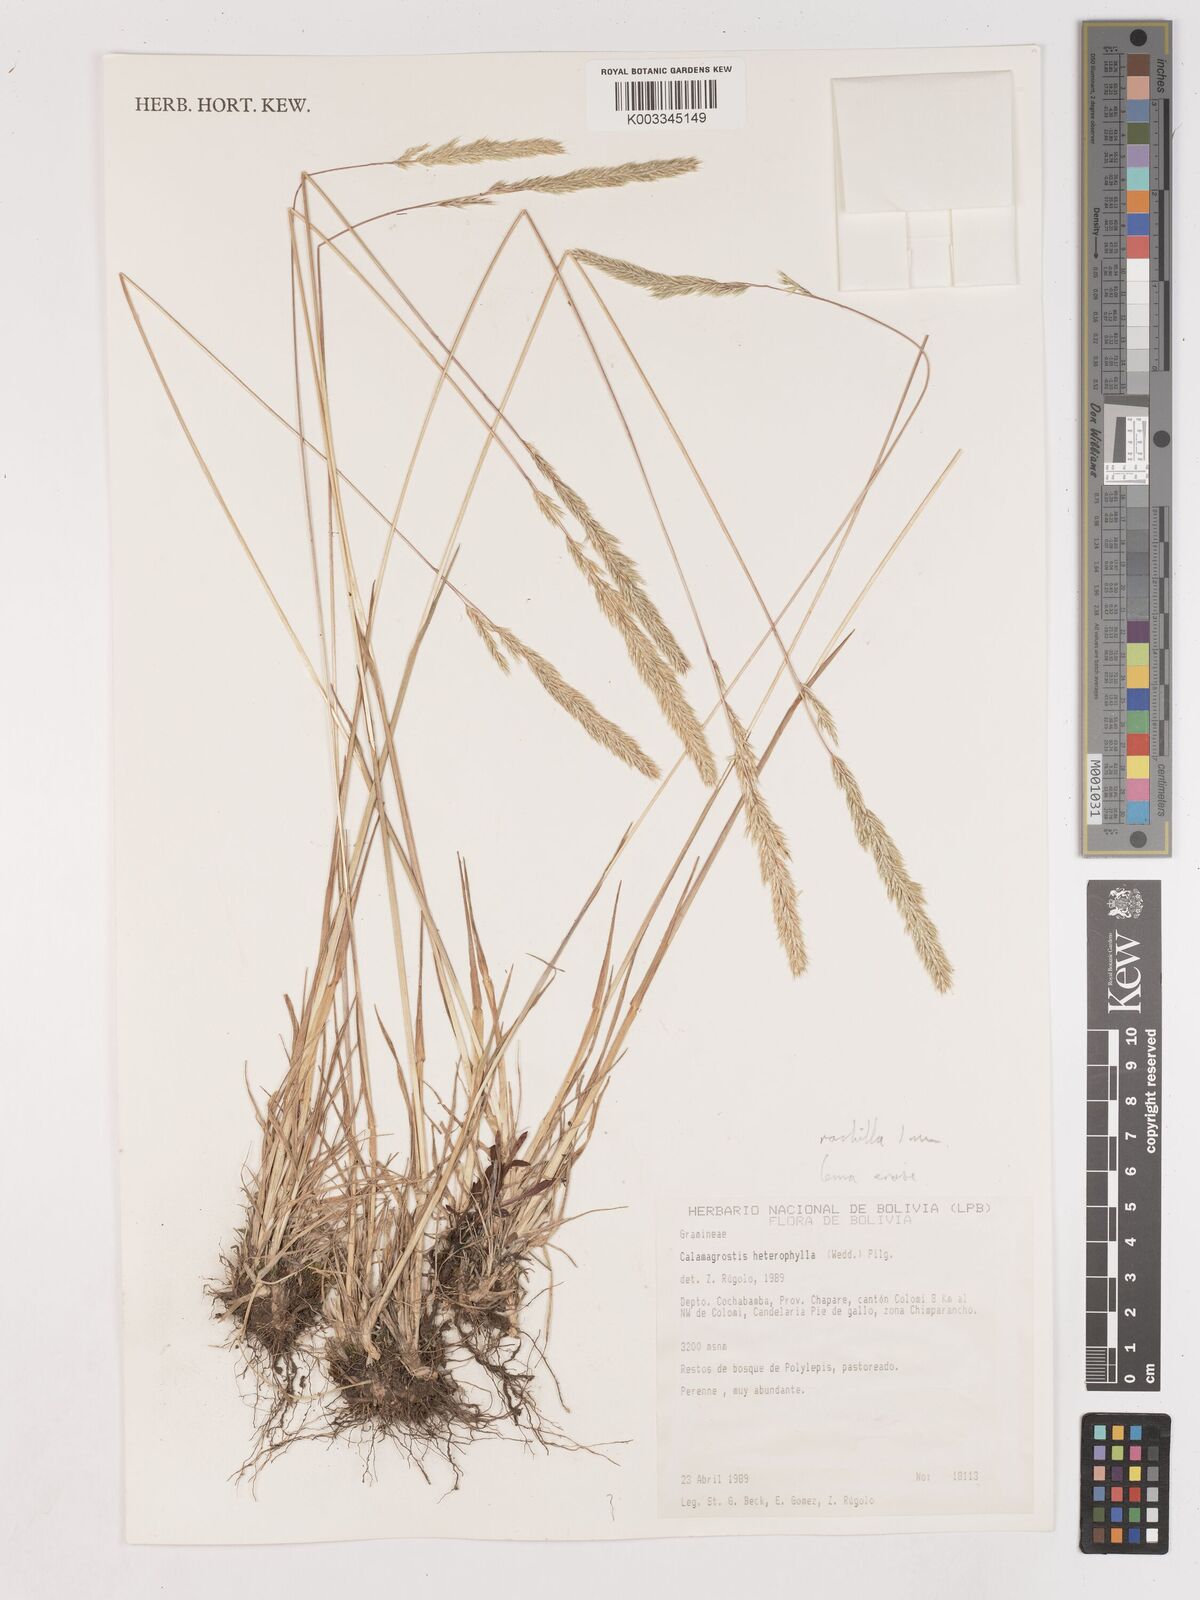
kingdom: Plantae
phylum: Tracheophyta
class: Liliopsida
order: Poales
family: Poaceae
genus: Calamagrostis
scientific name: Calamagrostis
